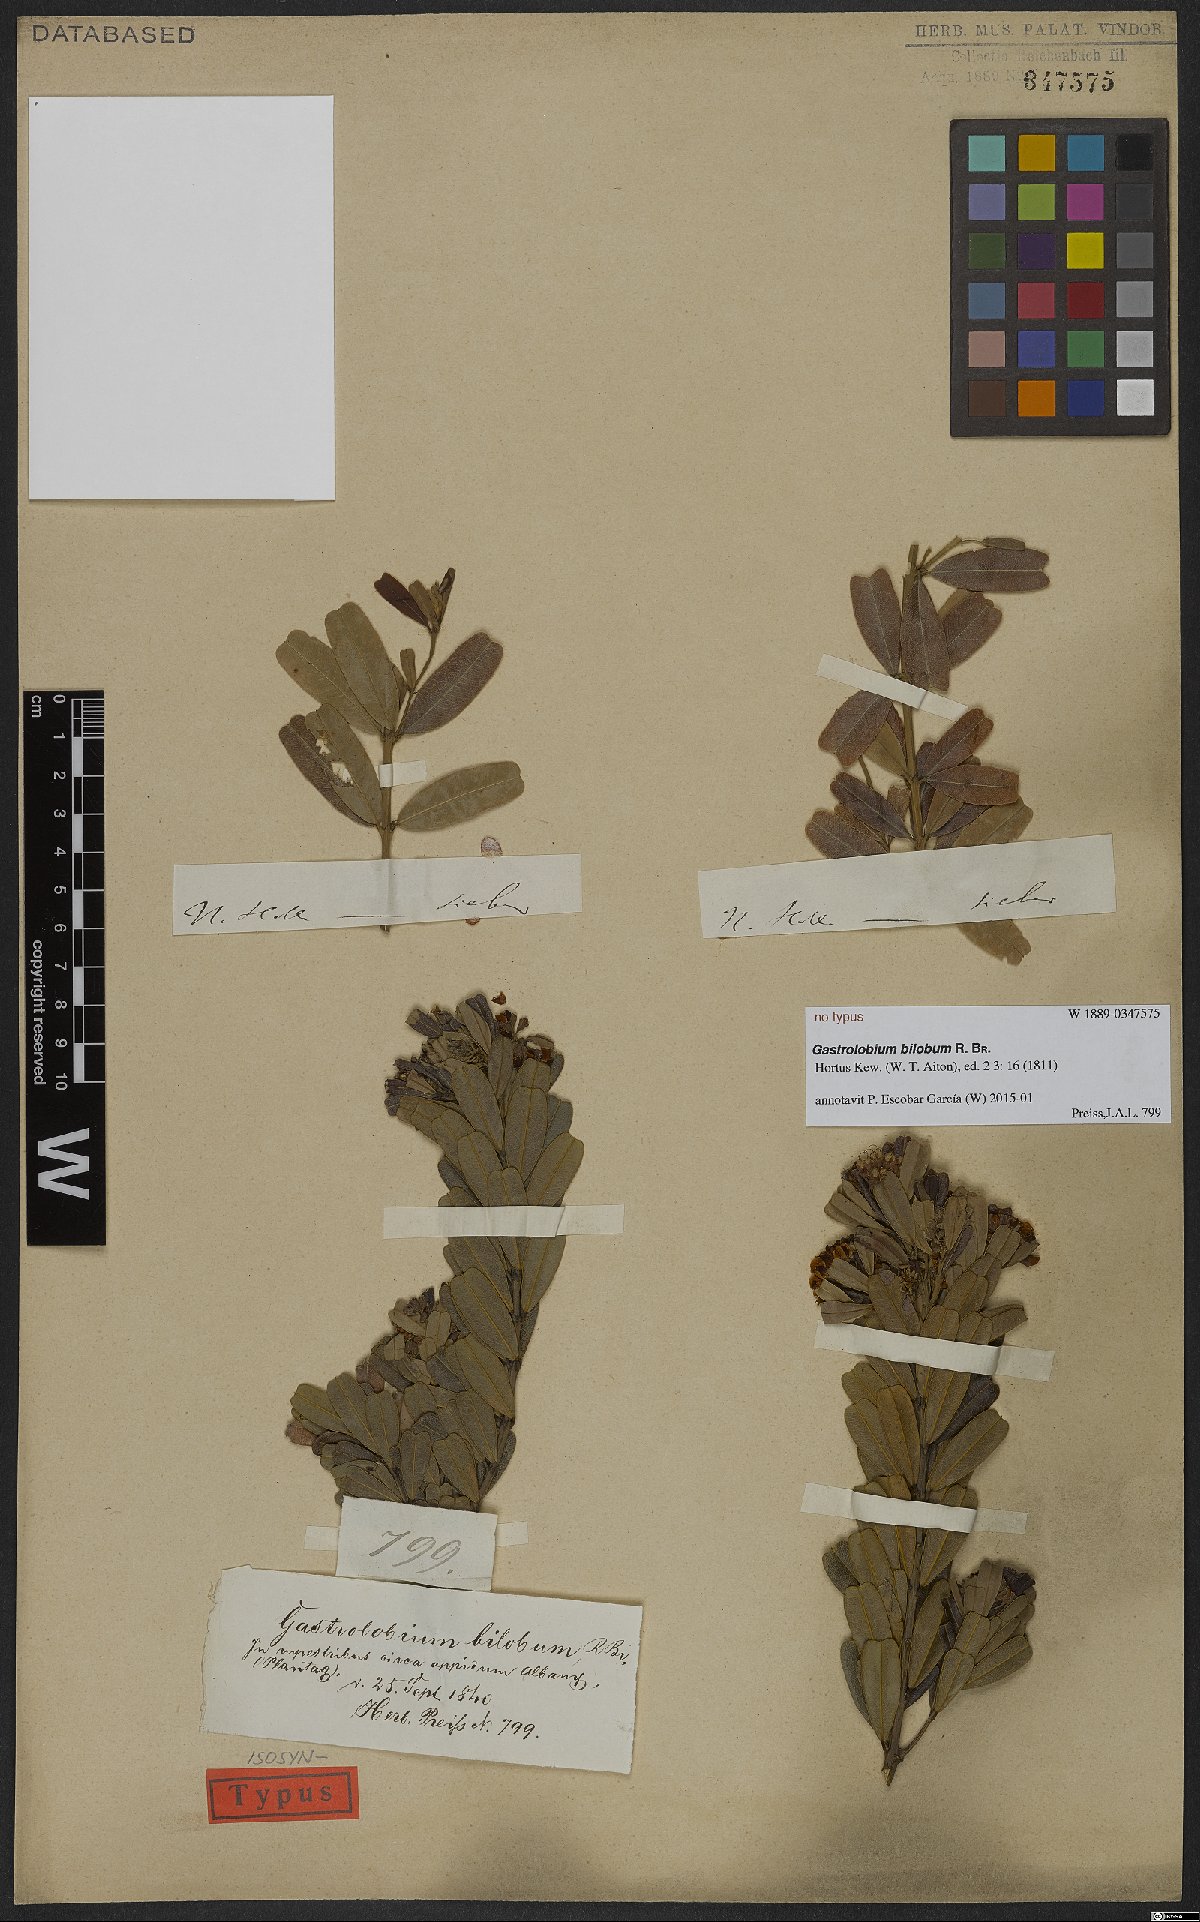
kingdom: Plantae
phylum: Tracheophyta
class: Magnoliopsida
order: Fabales
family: Fabaceae
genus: Gastrolobium
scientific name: Gastrolobium bilobum
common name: Heart-leaf poisonbush
